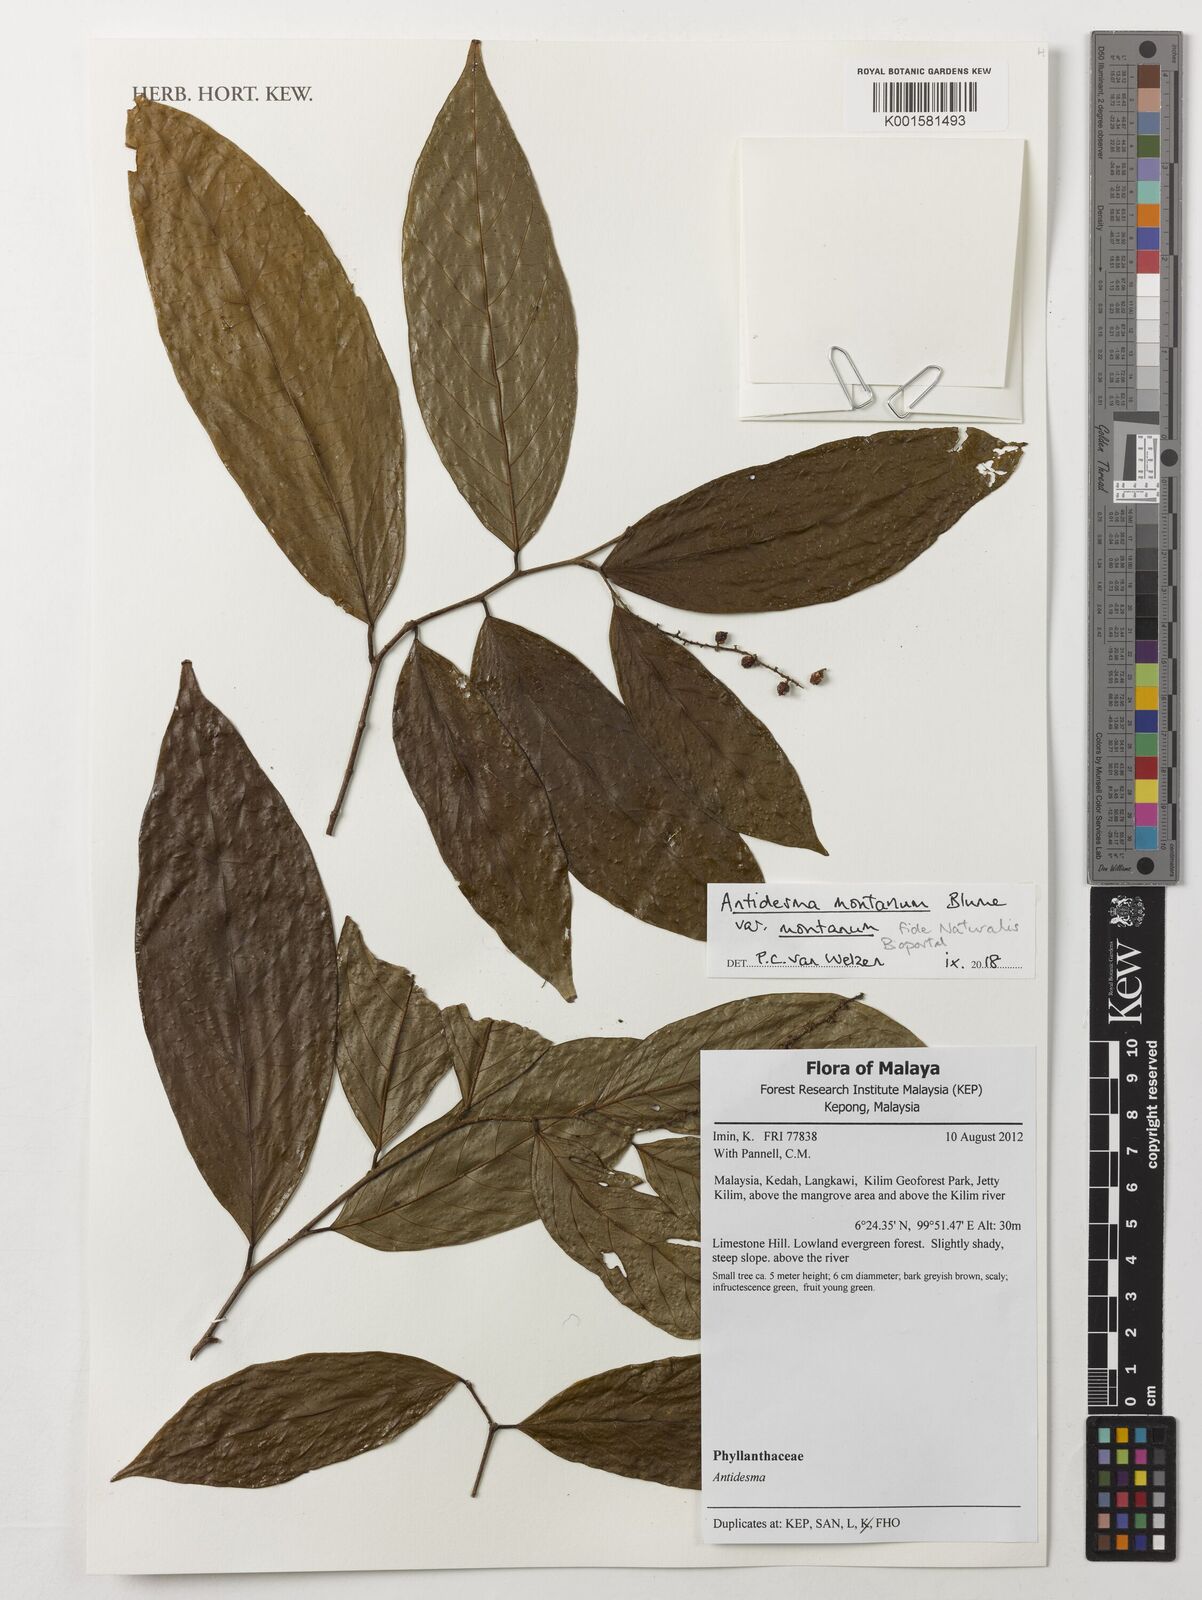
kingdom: Plantae
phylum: Tracheophyta
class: Magnoliopsida
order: Malpighiales
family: Phyllanthaceae
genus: Antidesma
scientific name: Antidesma montanum
